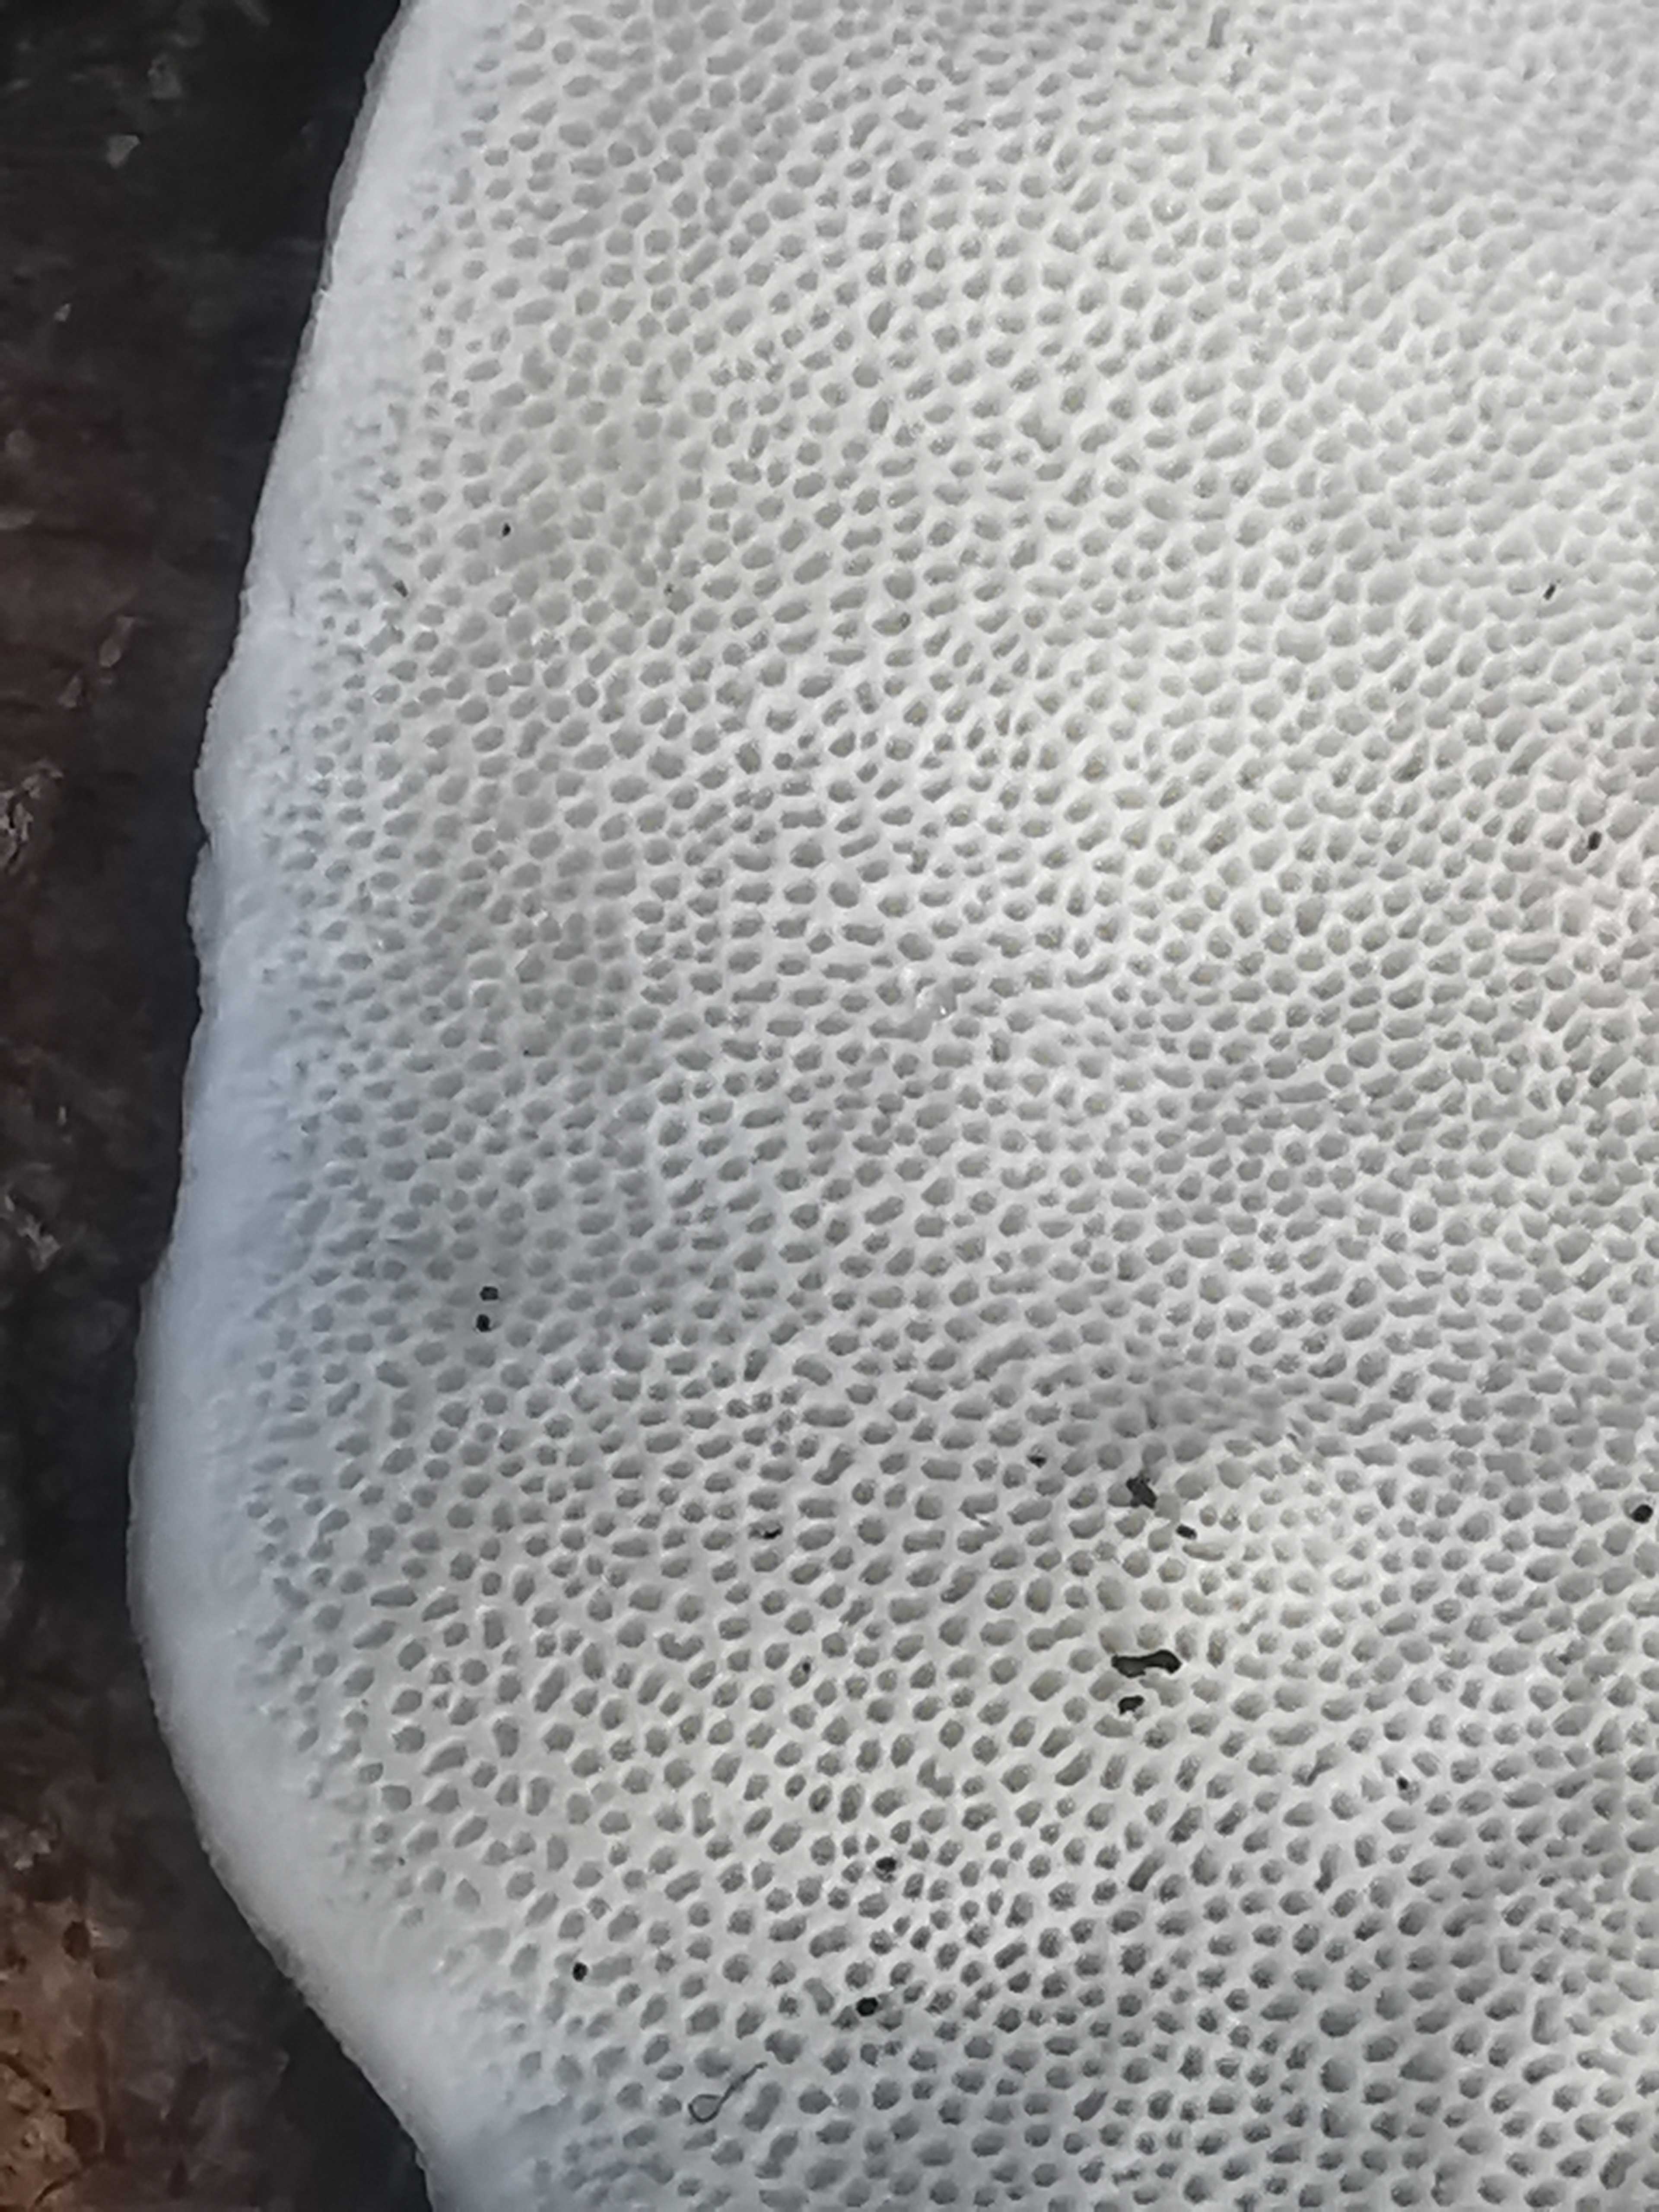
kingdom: Fungi
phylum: Basidiomycota
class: Agaricomycetes
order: Polyporales
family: Polyporaceae
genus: Trametes
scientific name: Trametes hirsuta
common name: håret læderporesvamp
